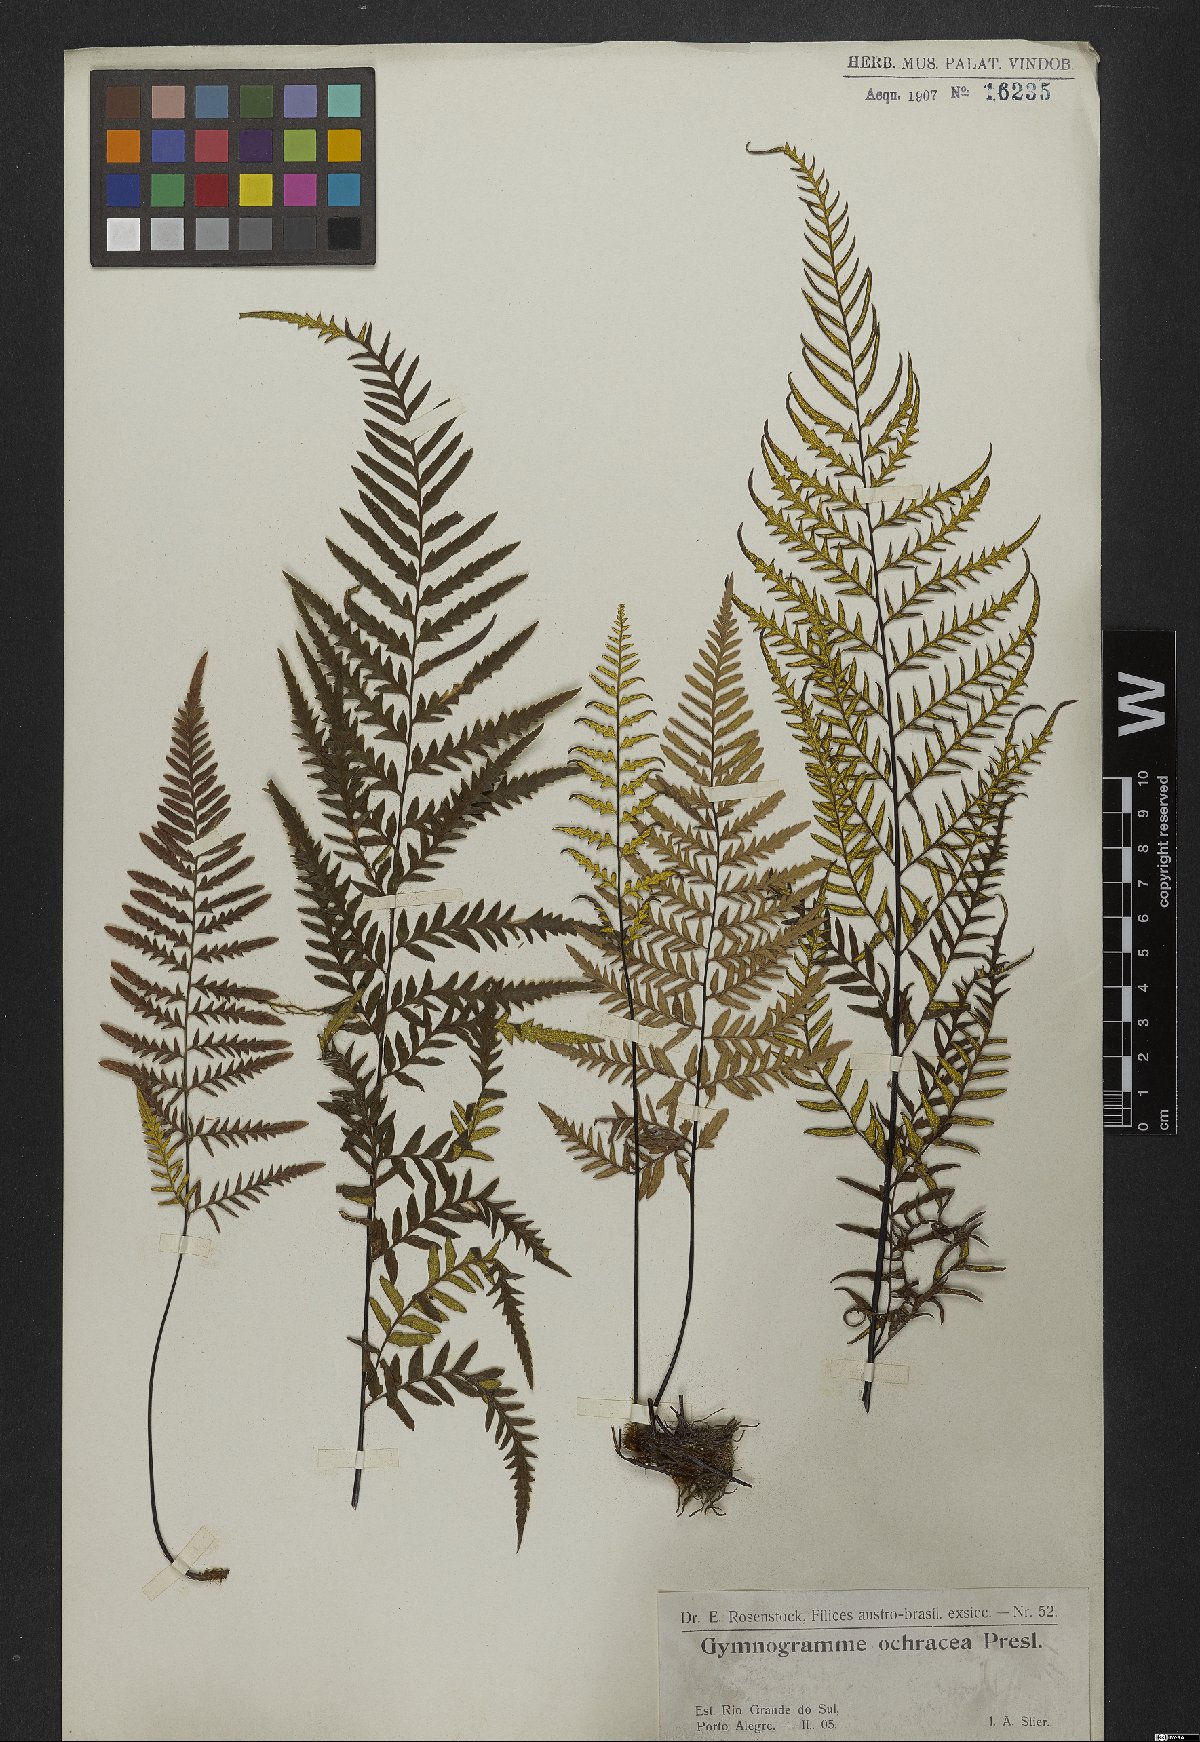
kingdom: Plantae
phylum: Tracheophyta
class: Polypodiopsida
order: Polypodiales
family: Pteridaceae
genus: Pityrogramma
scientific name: Pityrogramma ochracea
